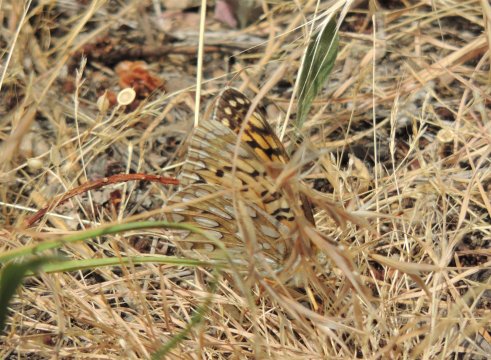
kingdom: Animalia
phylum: Arthropoda
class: Insecta
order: Lepidoptera
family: Nymphalidae
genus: Speyeria
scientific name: Speyeria callippe
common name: Callippe Fritillary
